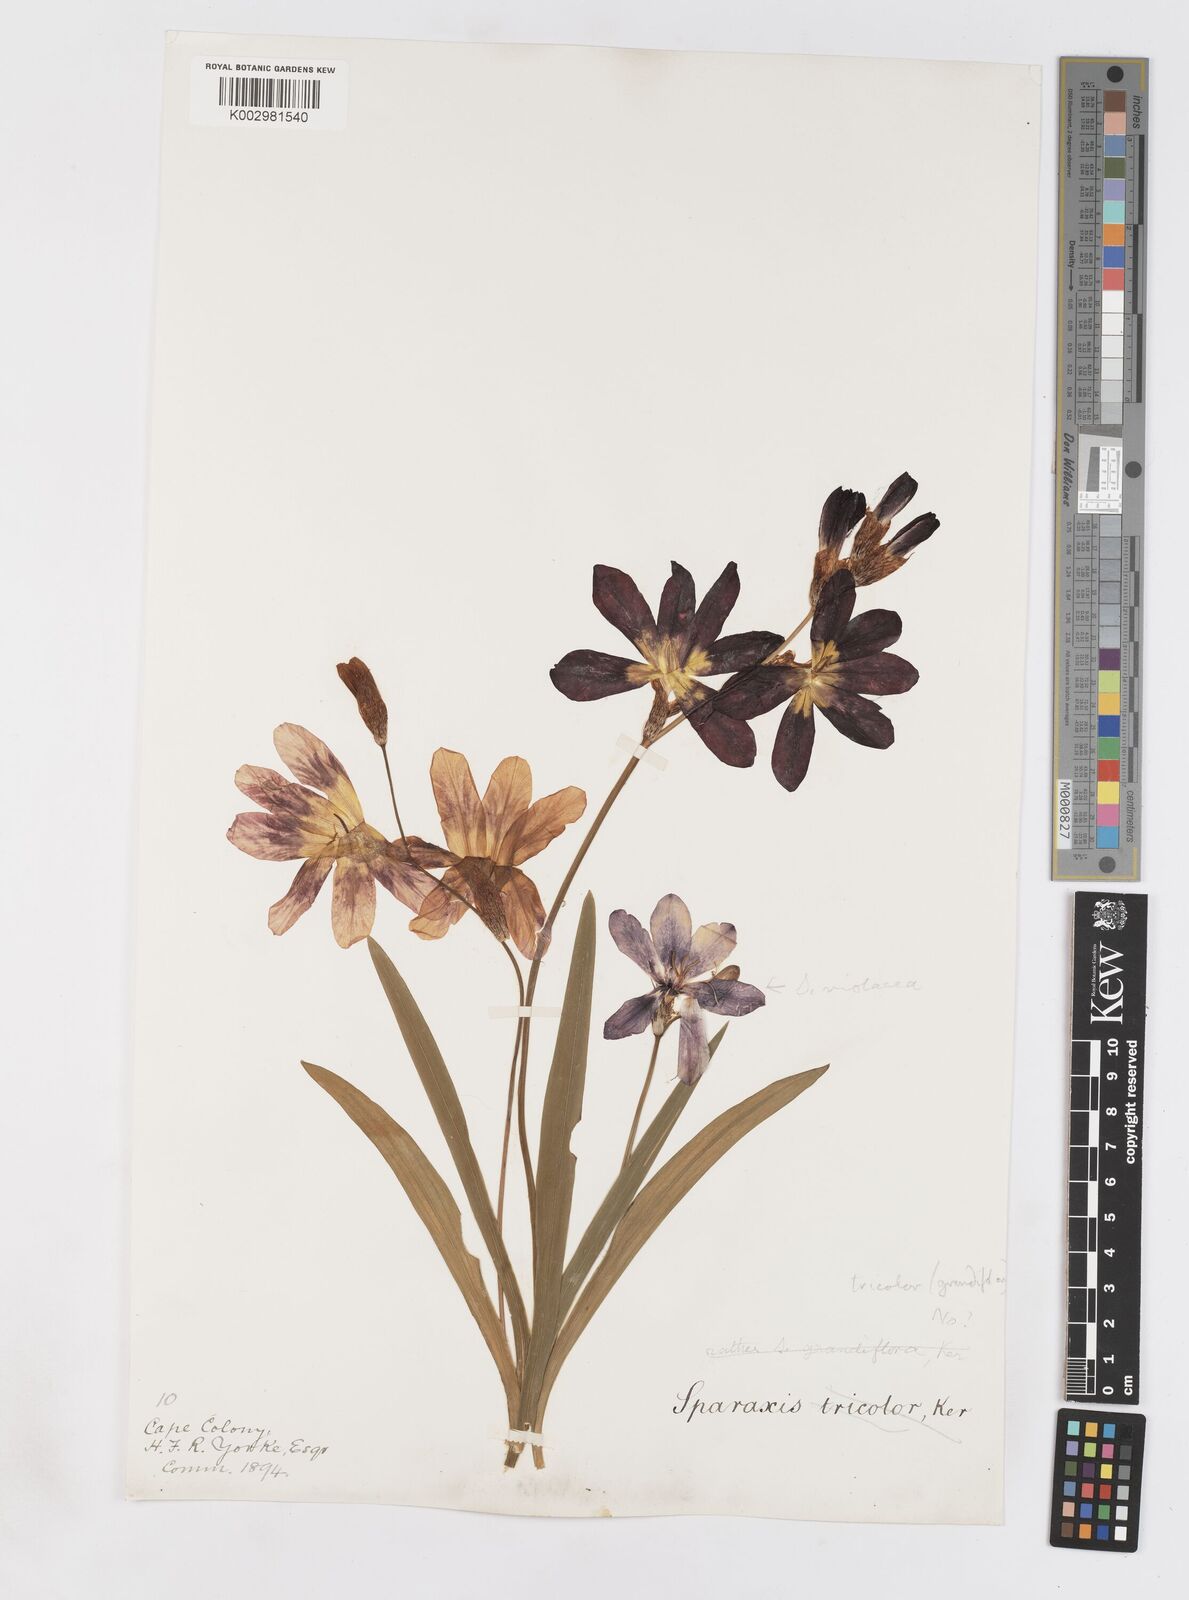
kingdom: Plantae
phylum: Tracheophyta
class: Liliopsida
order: Asparagales
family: Iridaceae
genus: Sparaxis
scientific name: Sparaxis
